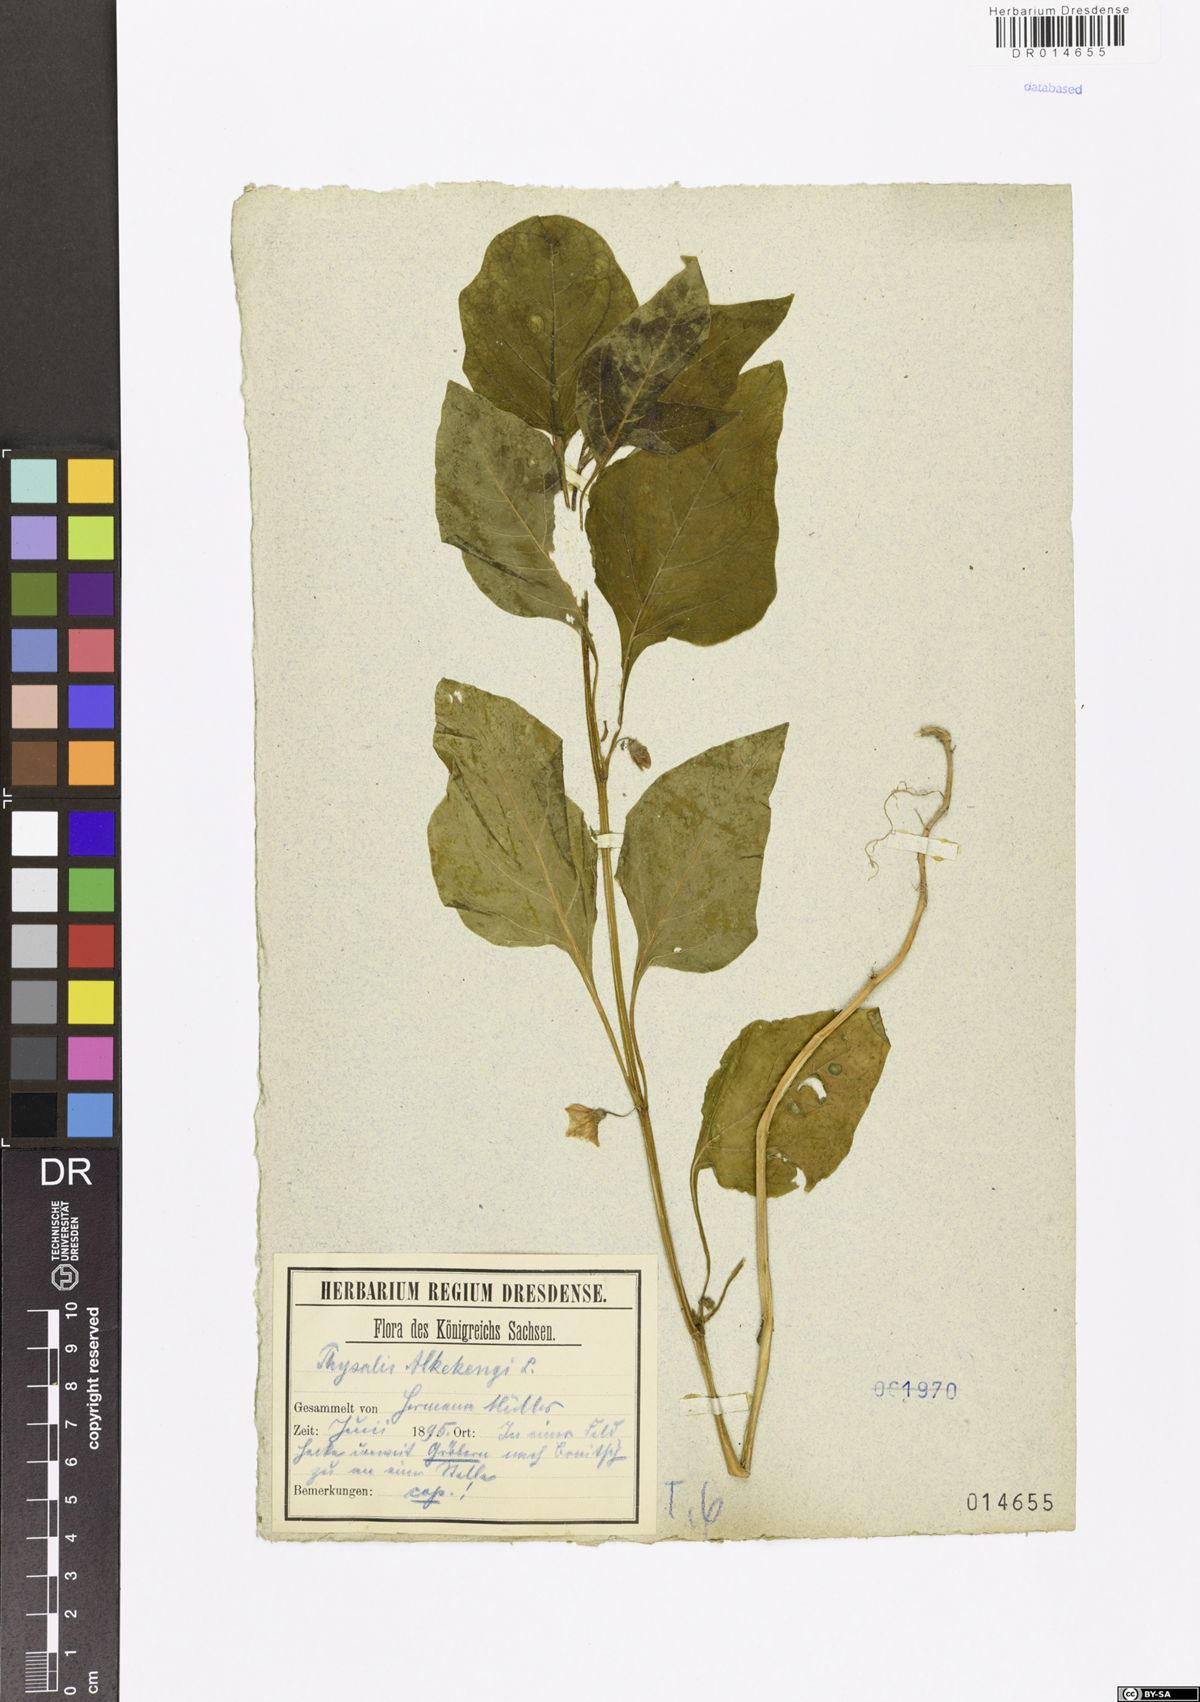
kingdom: Plantae
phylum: Tracheophyta
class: Magnoliopsida
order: Solanales
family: Solanaceae
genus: Alkekengi
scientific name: Alkekengi officinarum
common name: Japanese-lantern
